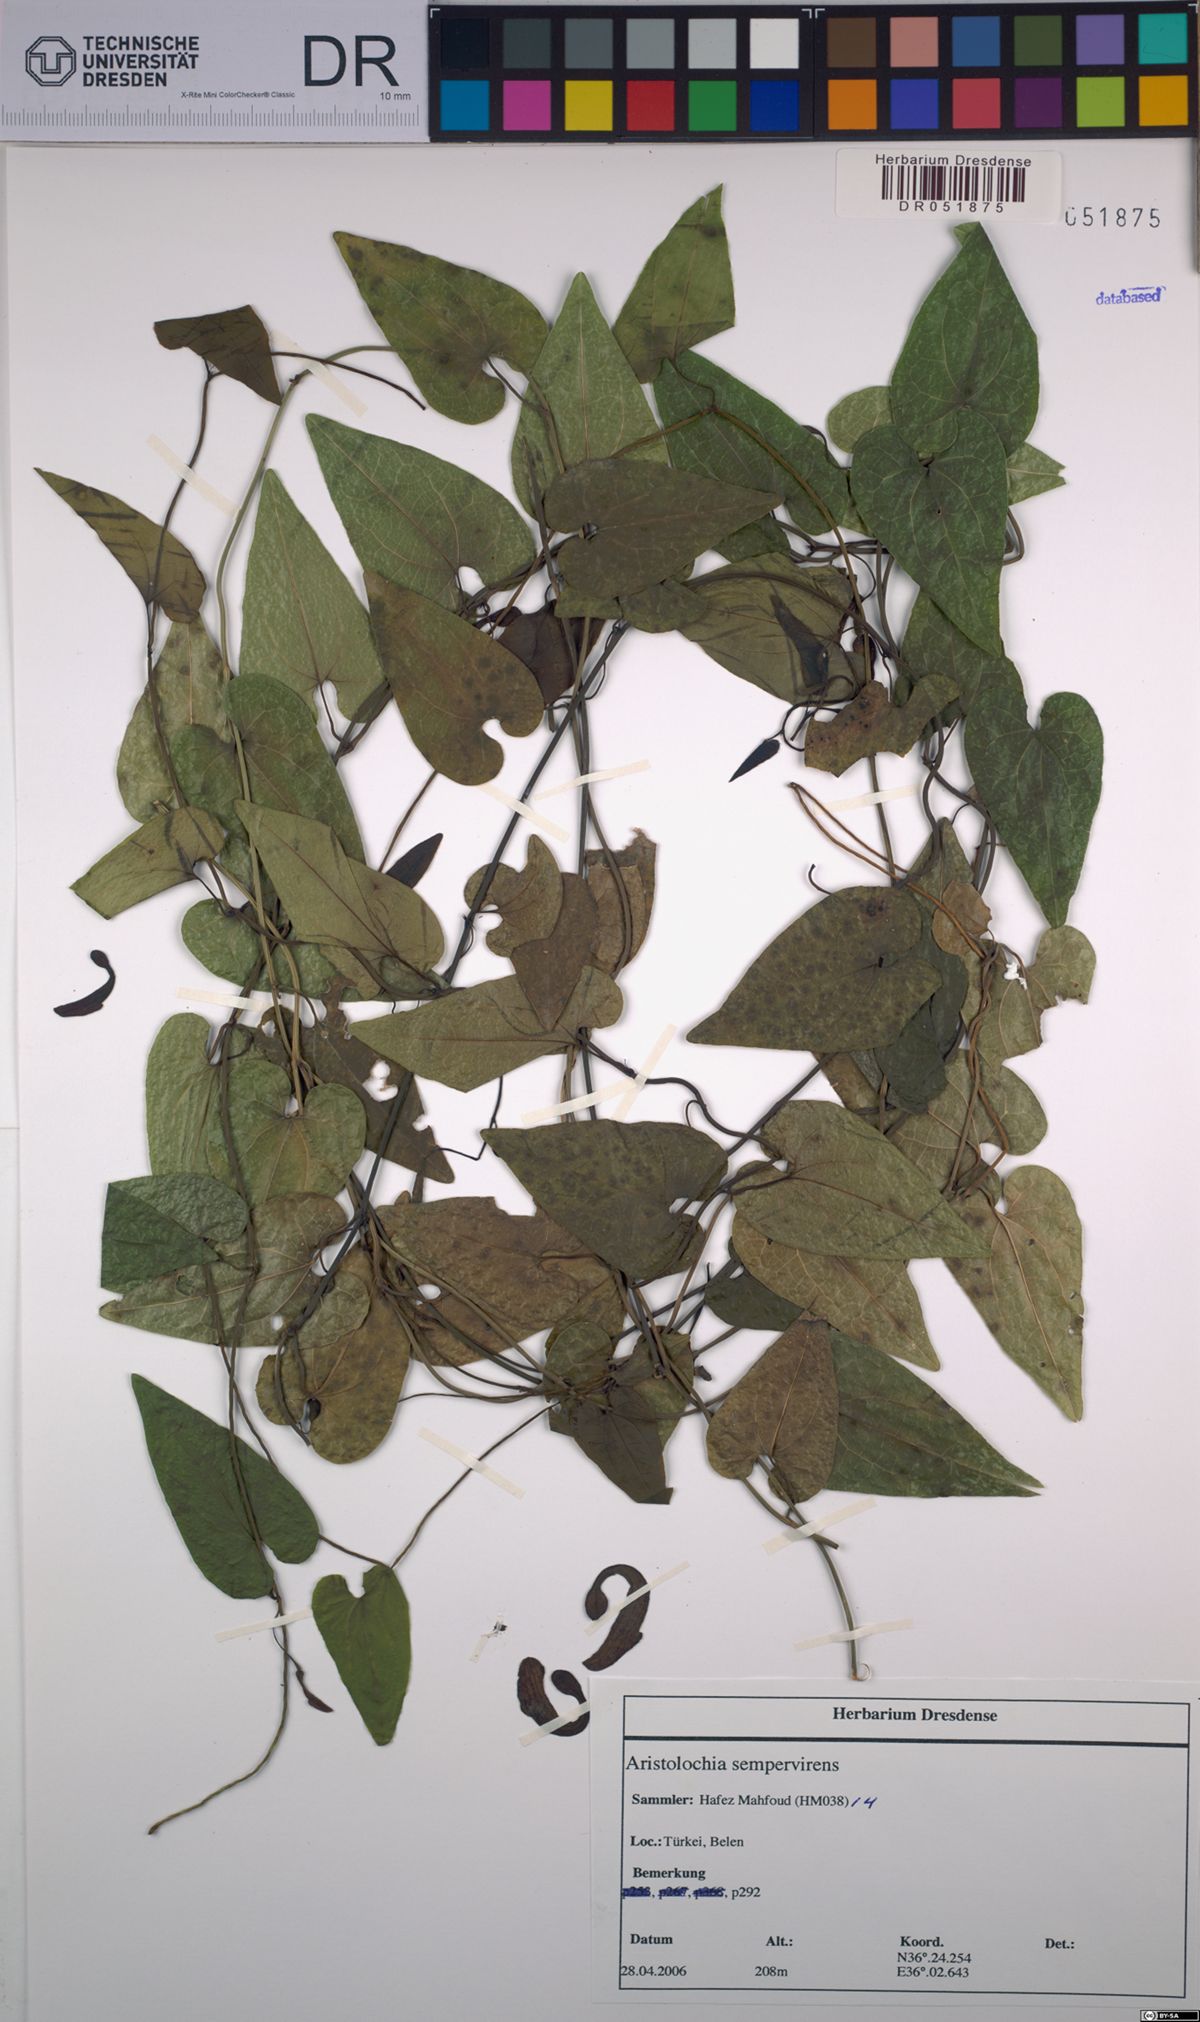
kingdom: Plantae
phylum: Tracheophyta
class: Magnoliopsida
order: Piperales
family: Aristolochiaceae
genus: Aristolochia
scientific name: Aristolochia sempervirens
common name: Long birthwort
